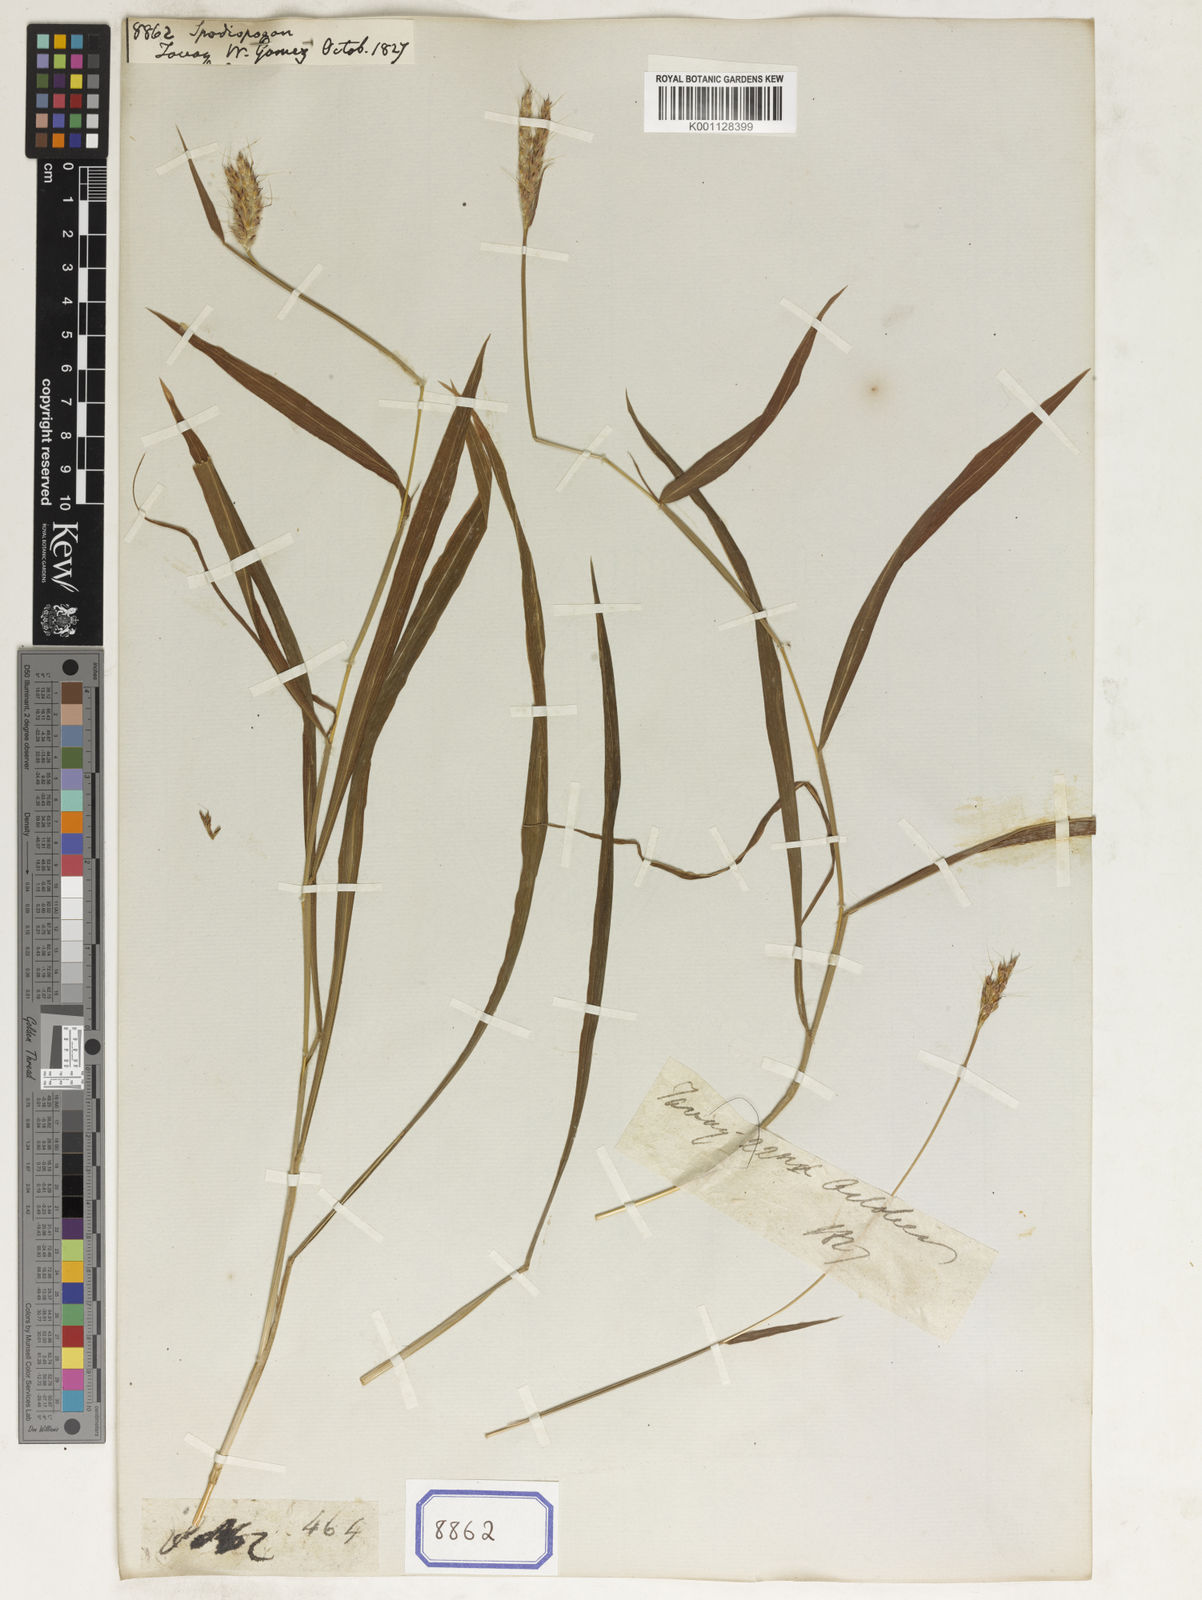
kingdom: Plantae
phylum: Tracheophyta
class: Liliopsida
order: Poales
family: Poaceae
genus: Spodiopogon
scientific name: Spodiopogon
